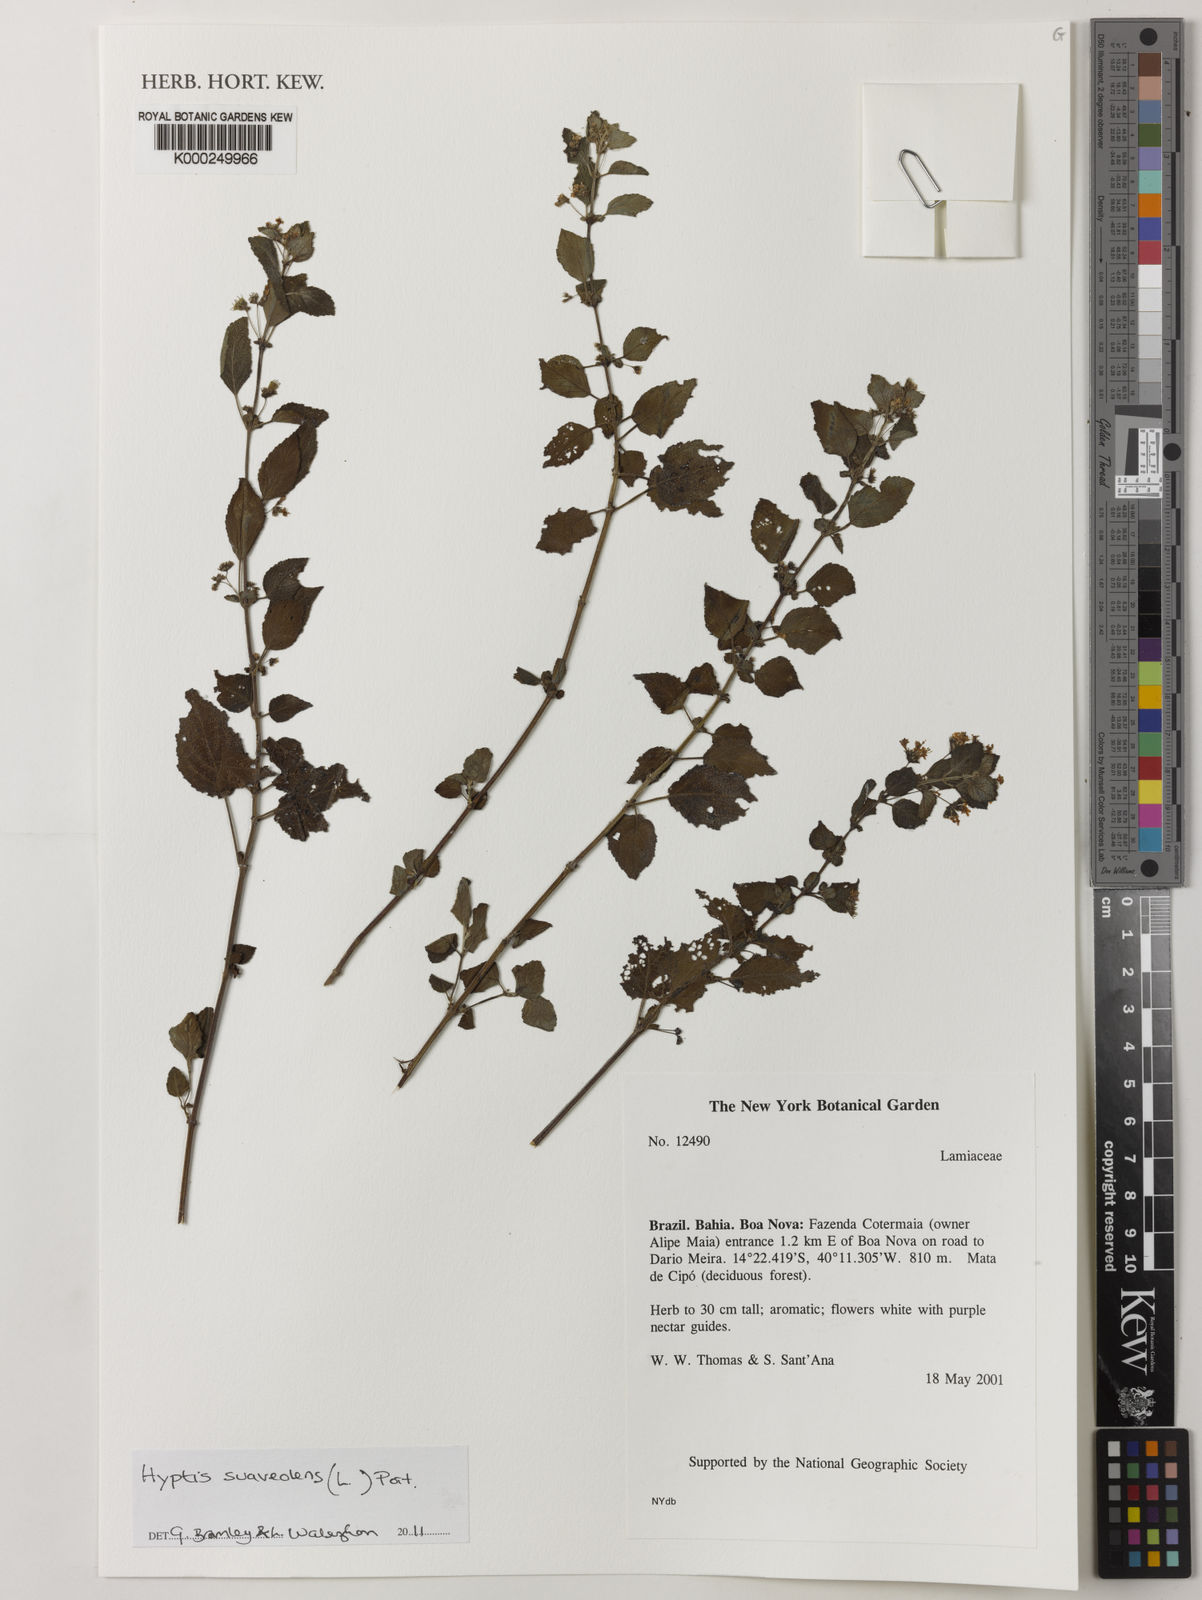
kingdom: Plantae
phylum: Tracheophyta
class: Magnoliopsida
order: Lamiales
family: Lamiaceae
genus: Mesosphaerum
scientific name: Mesosphaerum suaveolens
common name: Pignut
